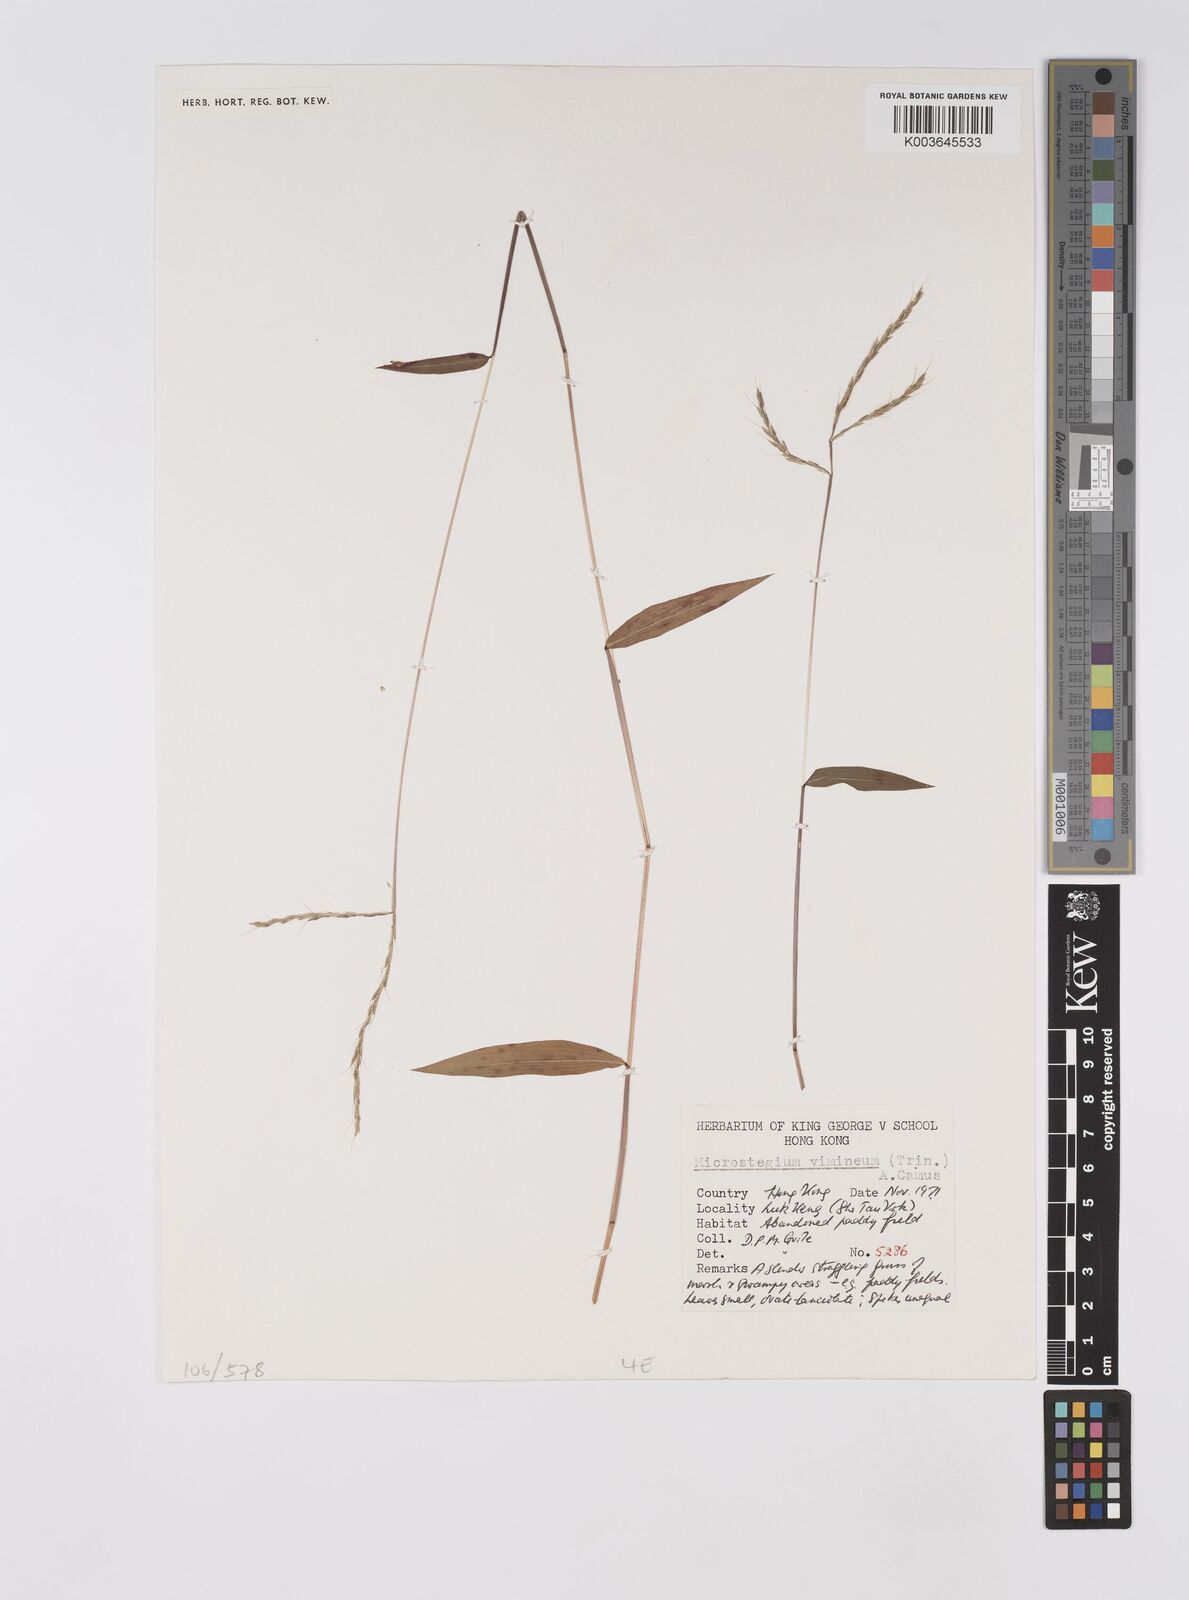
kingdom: Plantae
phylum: Tracheophyta
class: Liliopsida
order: Poales
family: Poaceae
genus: Microstegium
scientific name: Microstegium vimineum
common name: Japanese stiltgrass
